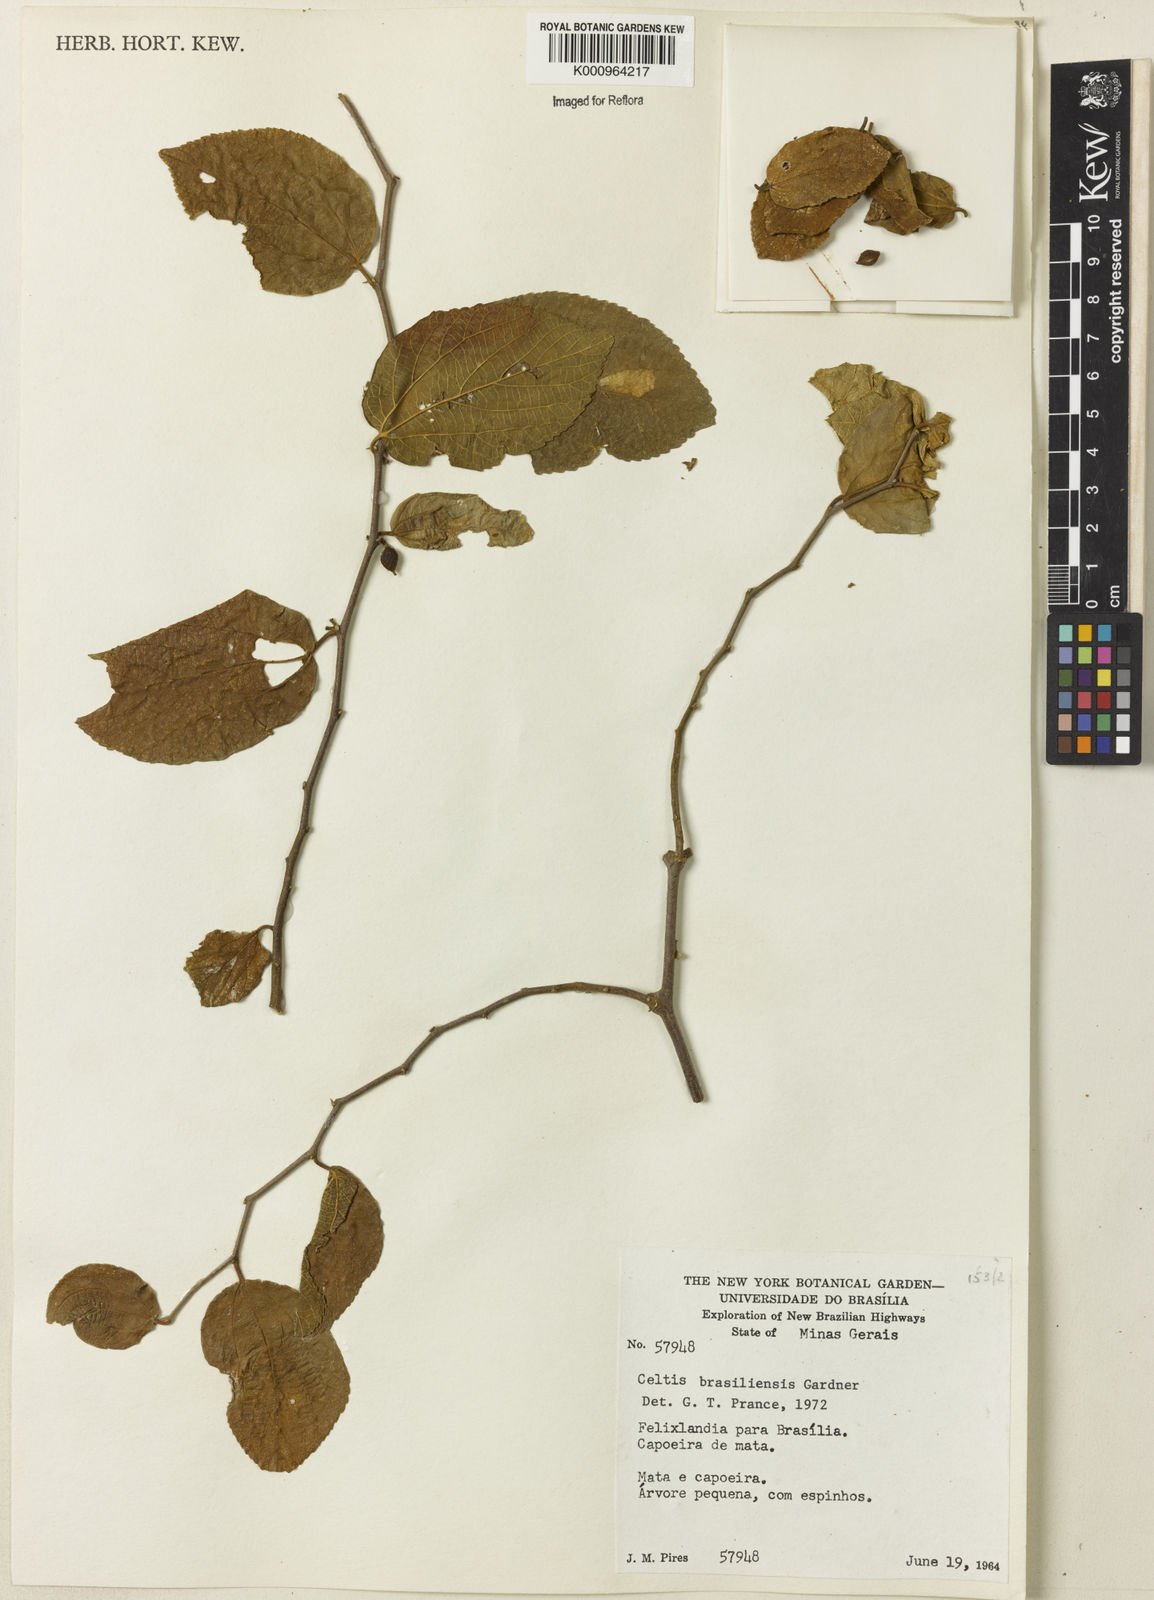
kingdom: Plantae
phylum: Tracheophyta
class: Magnoliopsida
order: Rosales
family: Cannabaceae
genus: Celtis
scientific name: Celtis brasiliensis
